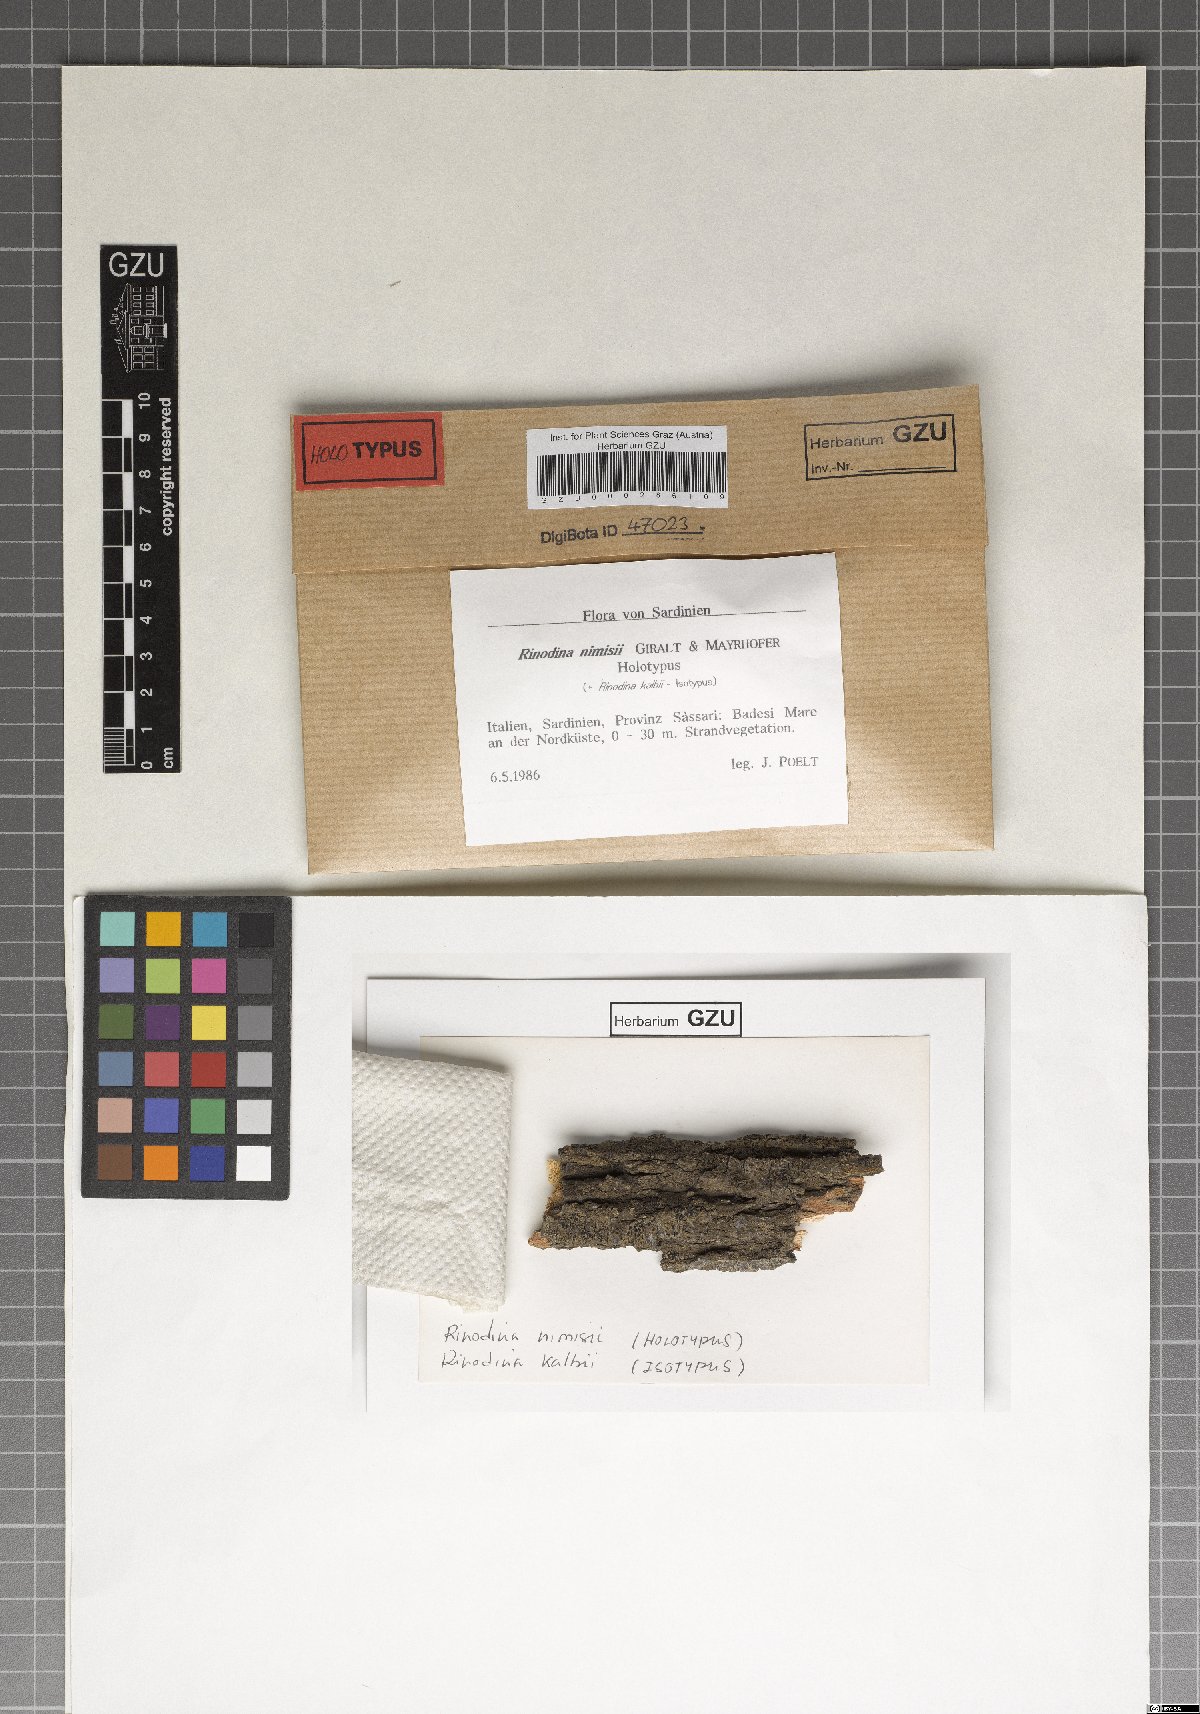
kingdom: Fungi
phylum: Ascomycota
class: Lecanoromycetes
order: Caliciales
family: Physciaceae
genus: Rinodina
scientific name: Rinodina nimisii
